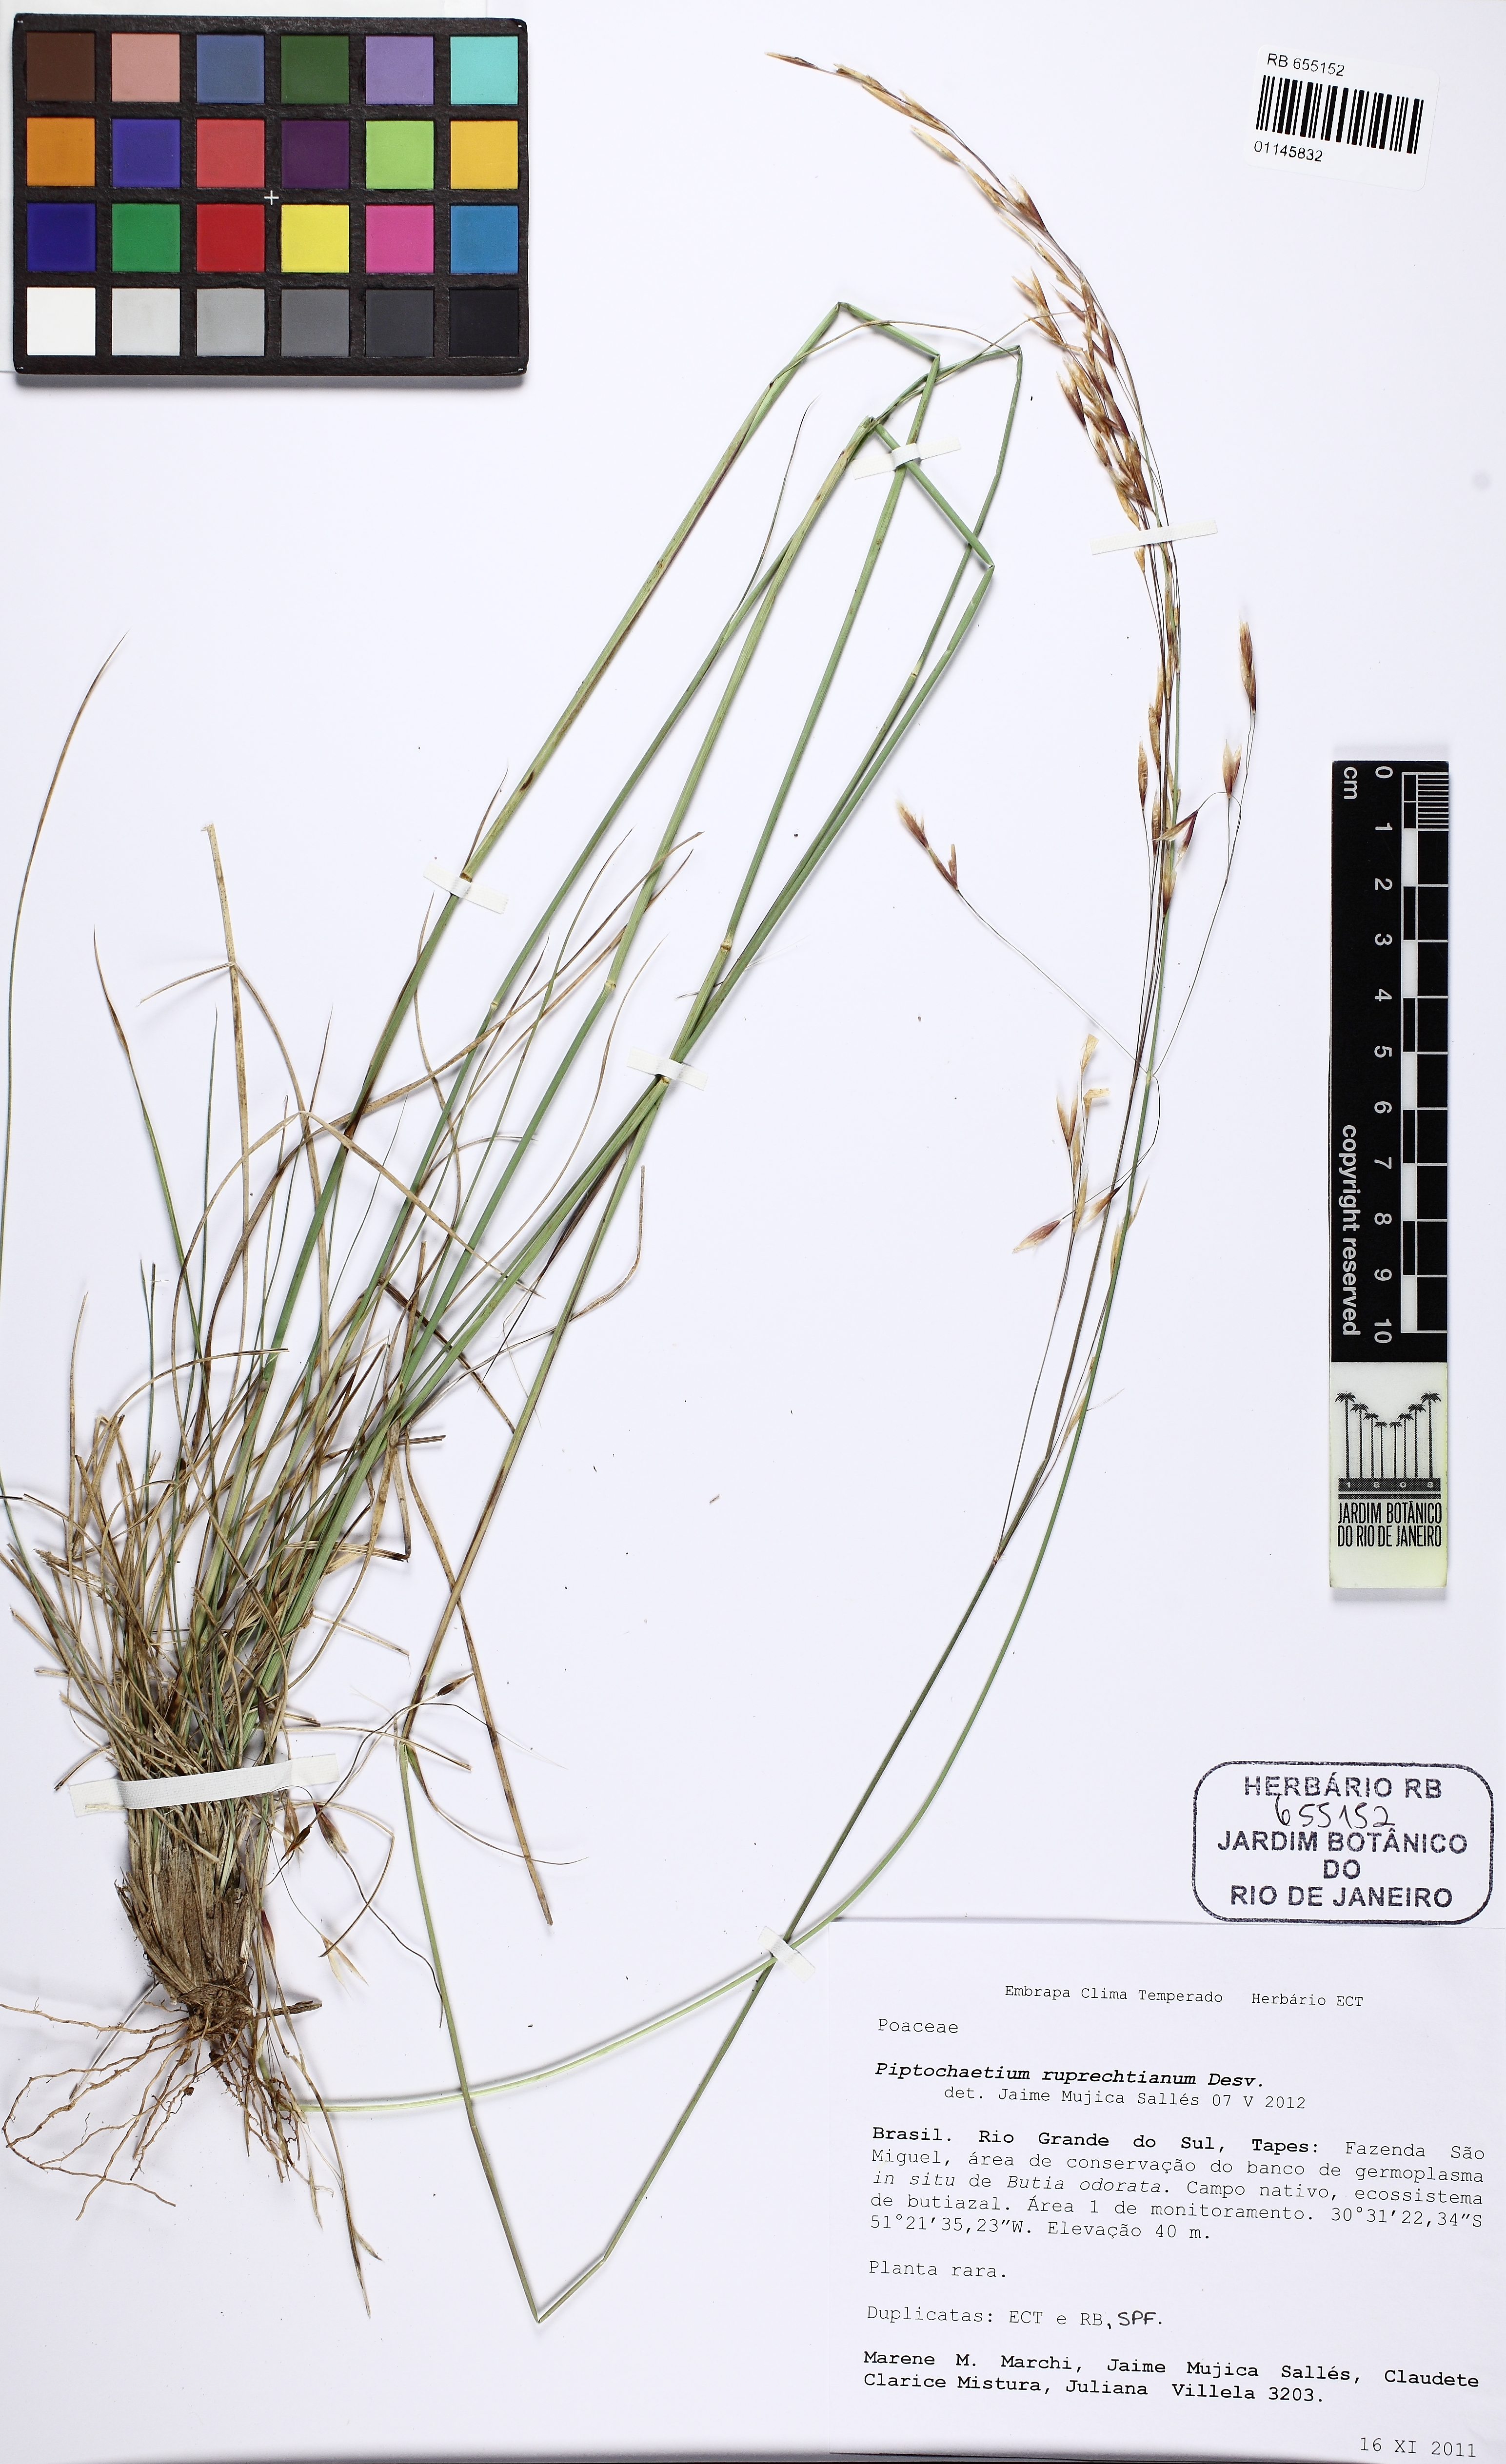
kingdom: Plantae
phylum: Tracheophyta
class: Liliopsida
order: Poales
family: Poaceae
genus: Piptochaetium
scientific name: Piptochaetium ruprechtianum
